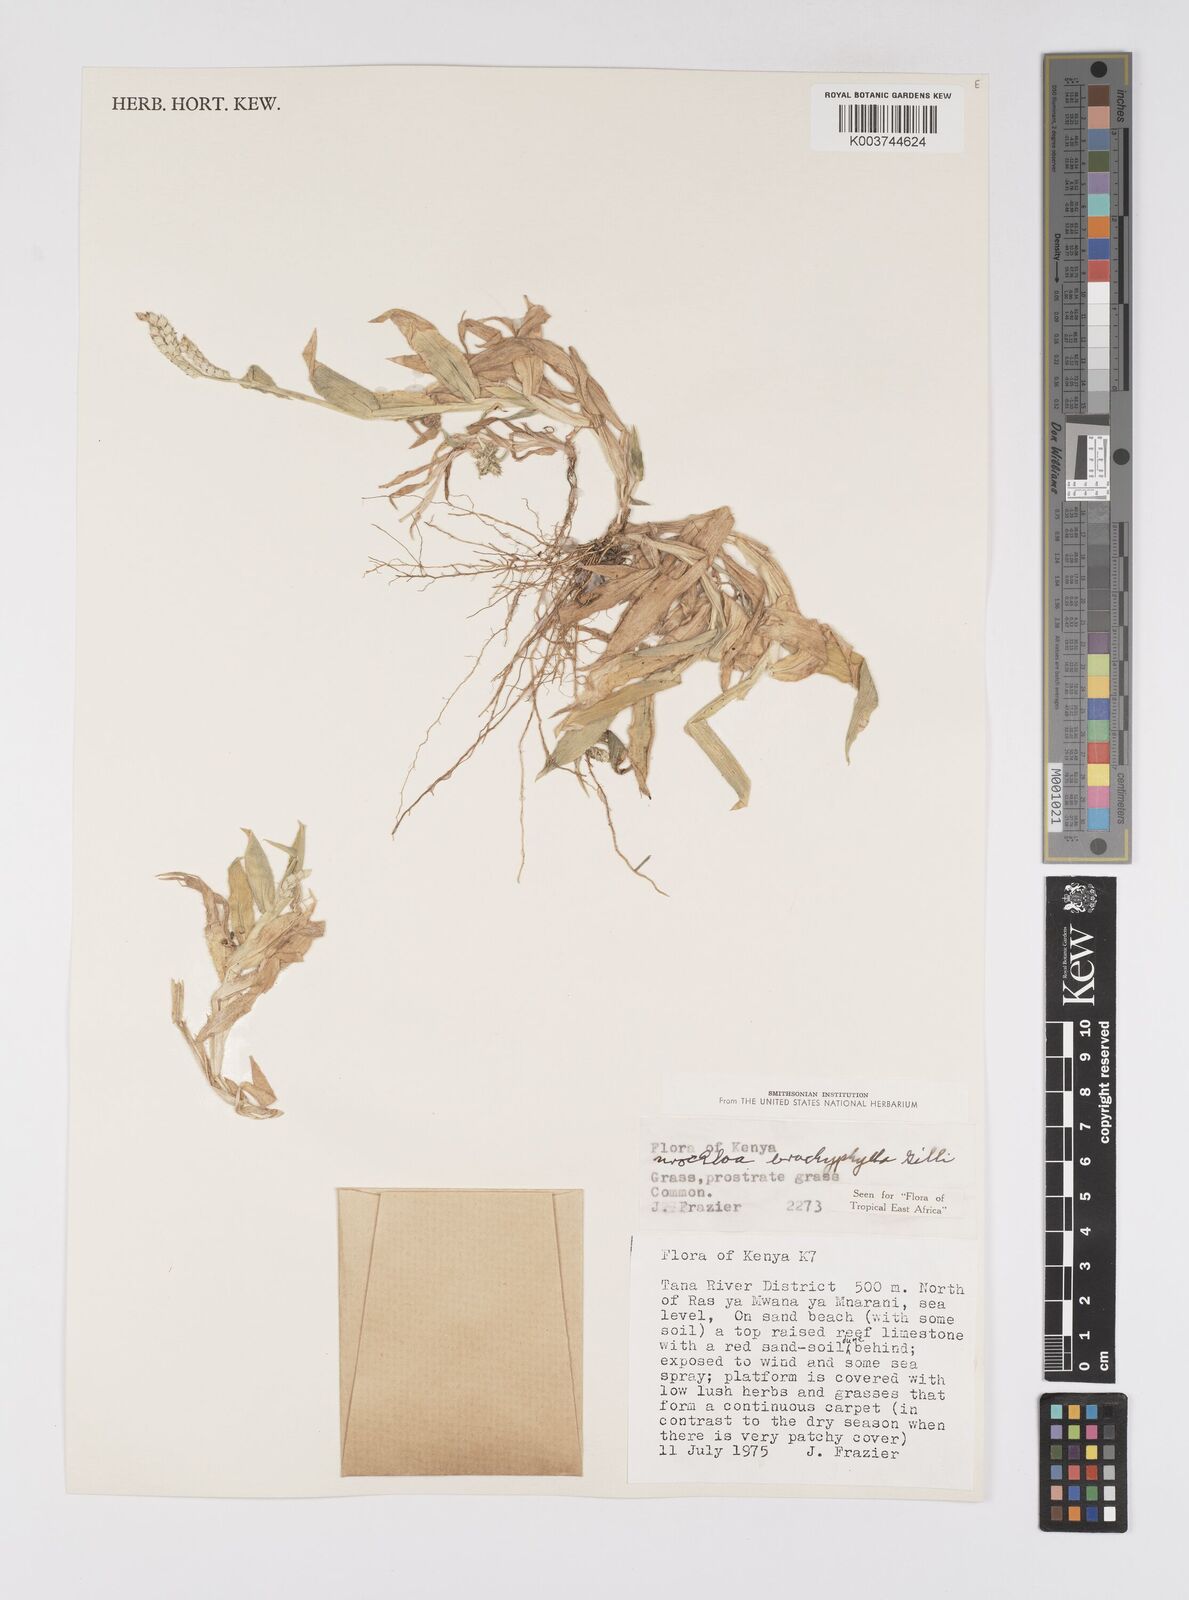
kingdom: Plantae
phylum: Tracheophyta
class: Liliopsida
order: Poales
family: Poaceae
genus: Urochloa
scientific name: Urochloa trichopus
